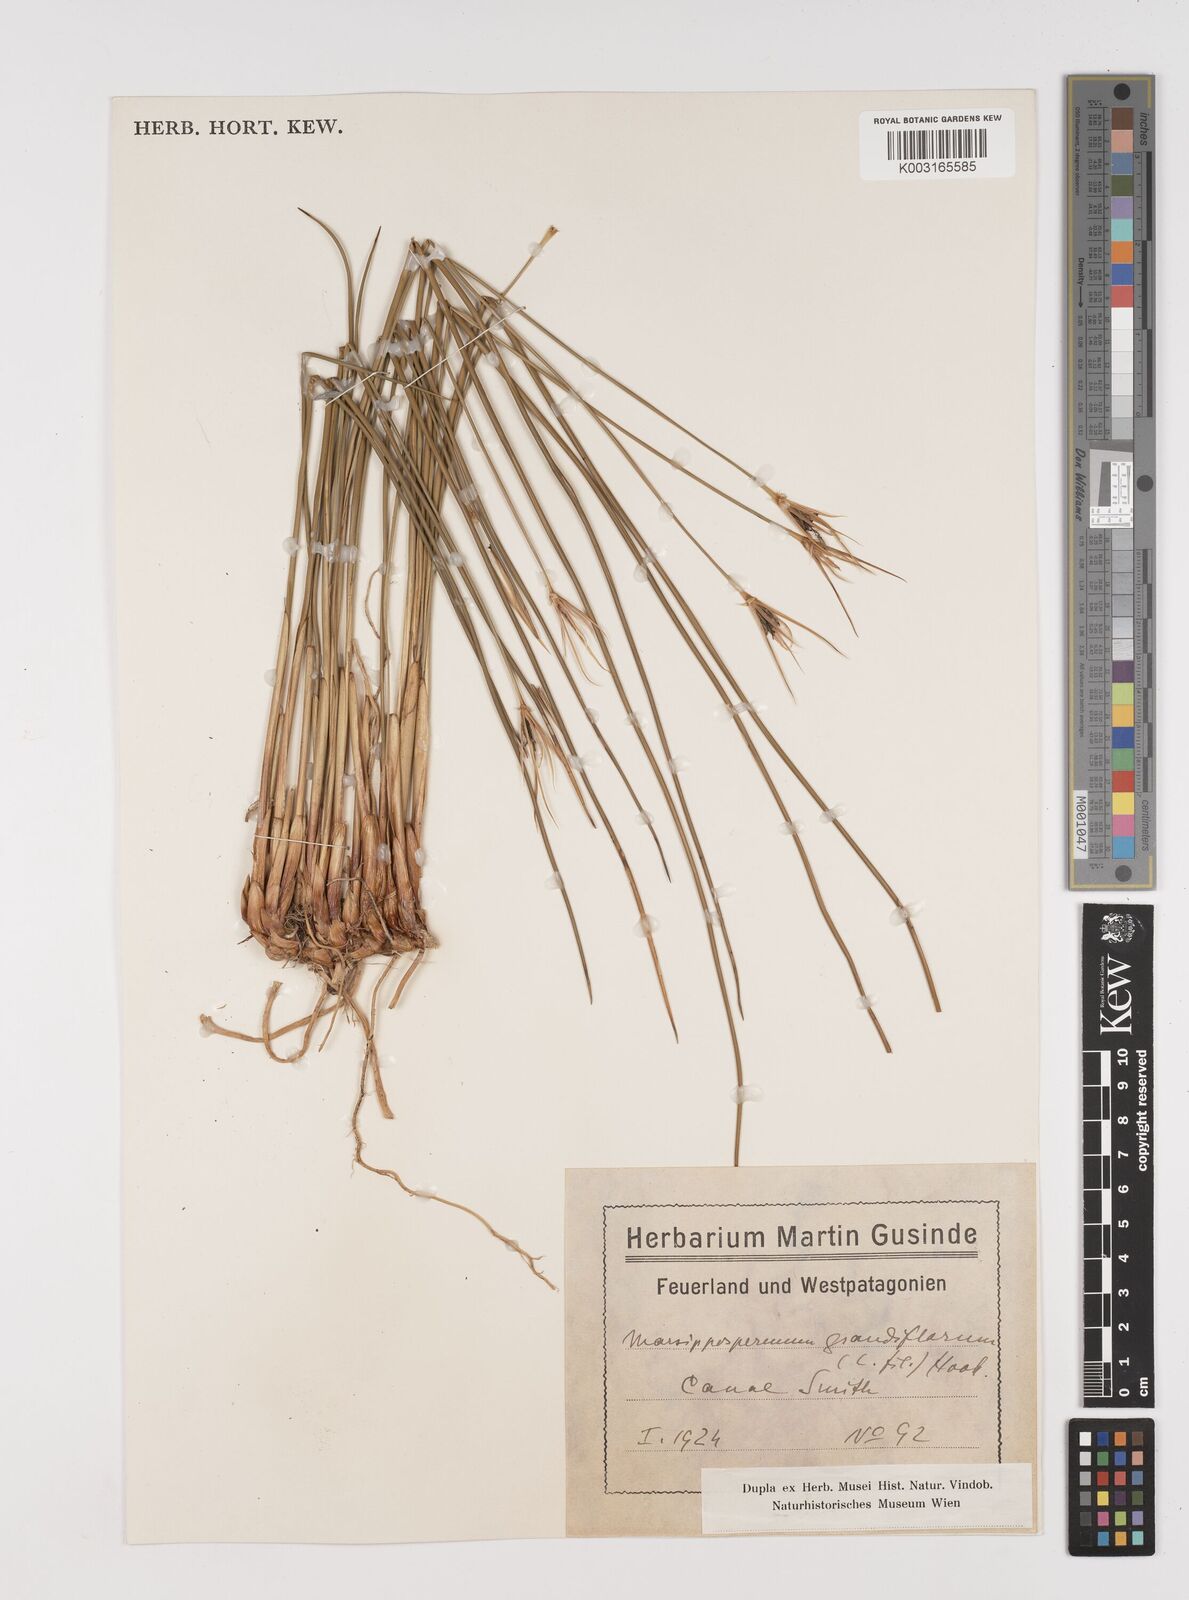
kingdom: Plantae
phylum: Tracheophyta
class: Liliopsida
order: Poales
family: Juncaceae
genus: Marsippospermum
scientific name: Marsippospermum grandiflorum
